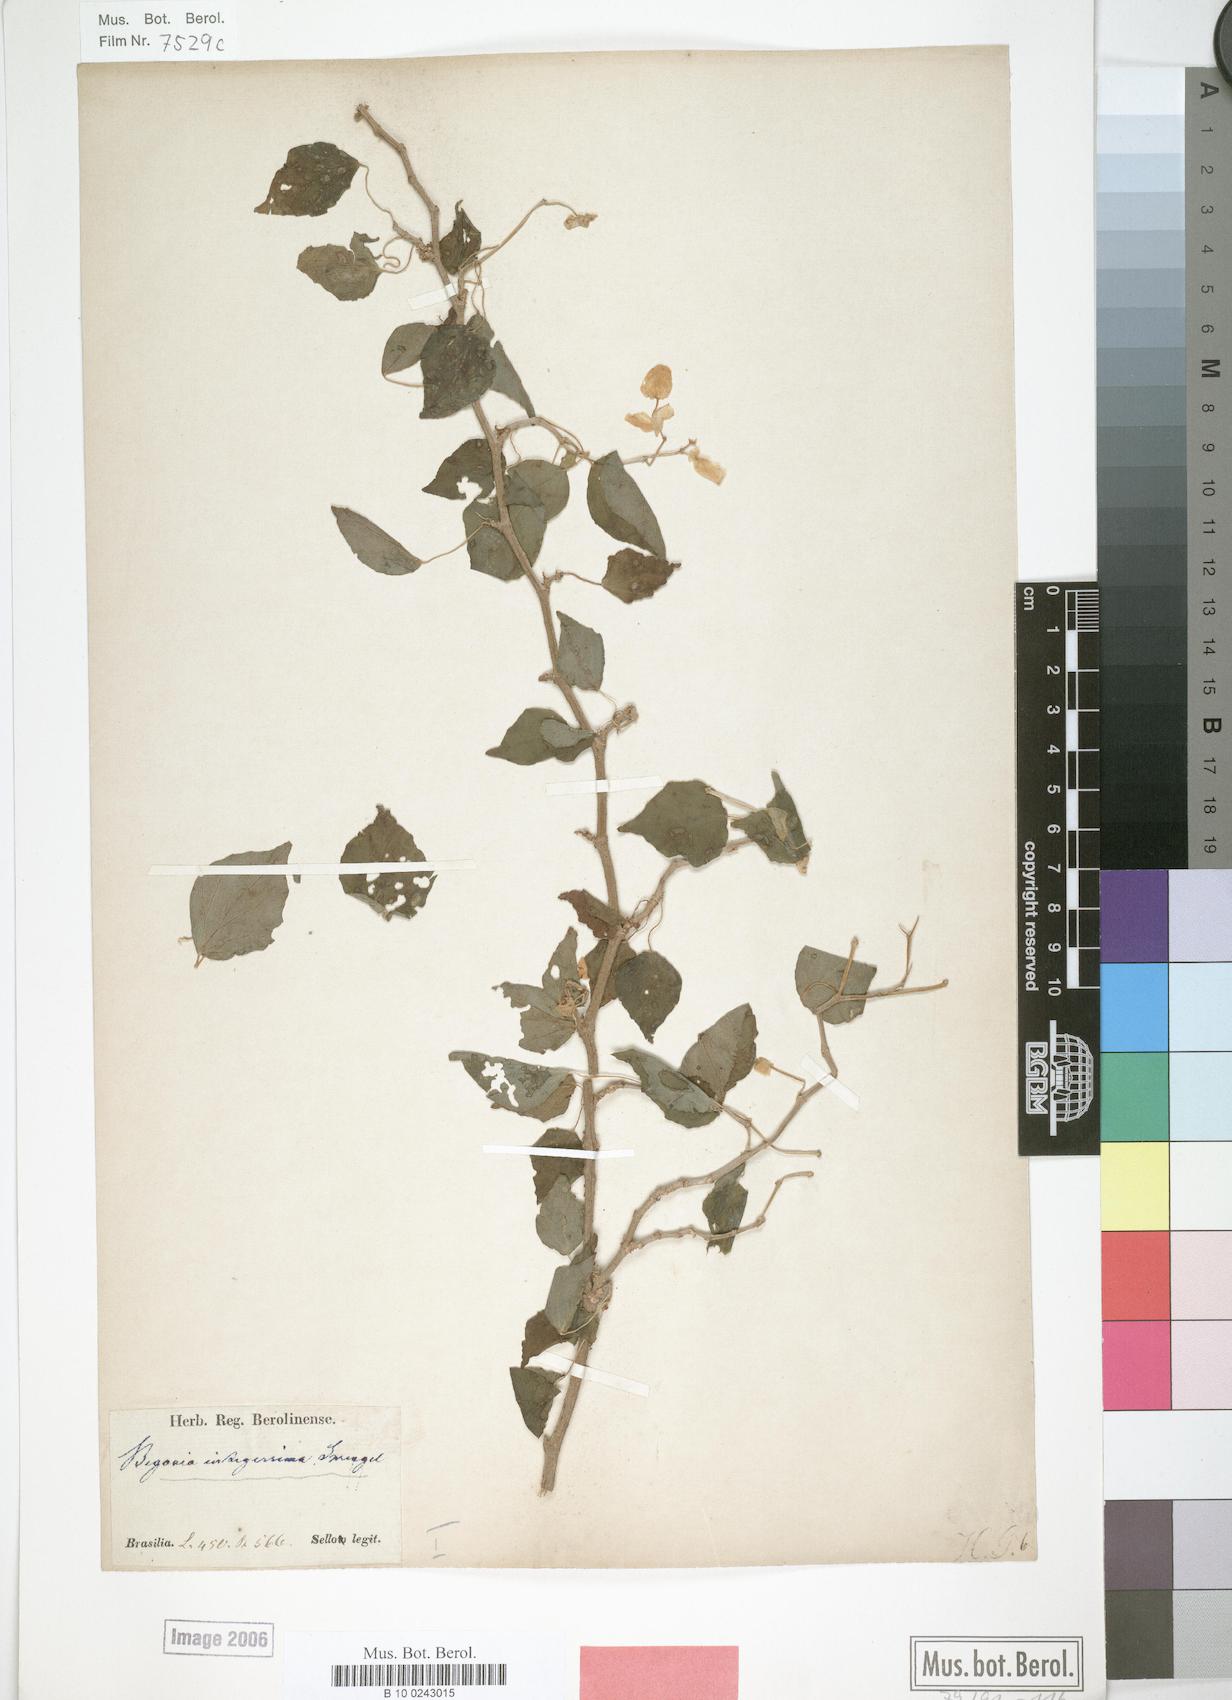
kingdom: Plantae
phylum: Tracheophyta
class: Magnoliopsida
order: Cucurbitales
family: Begoniaceae
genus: Begonia
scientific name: Begonia integerrima
